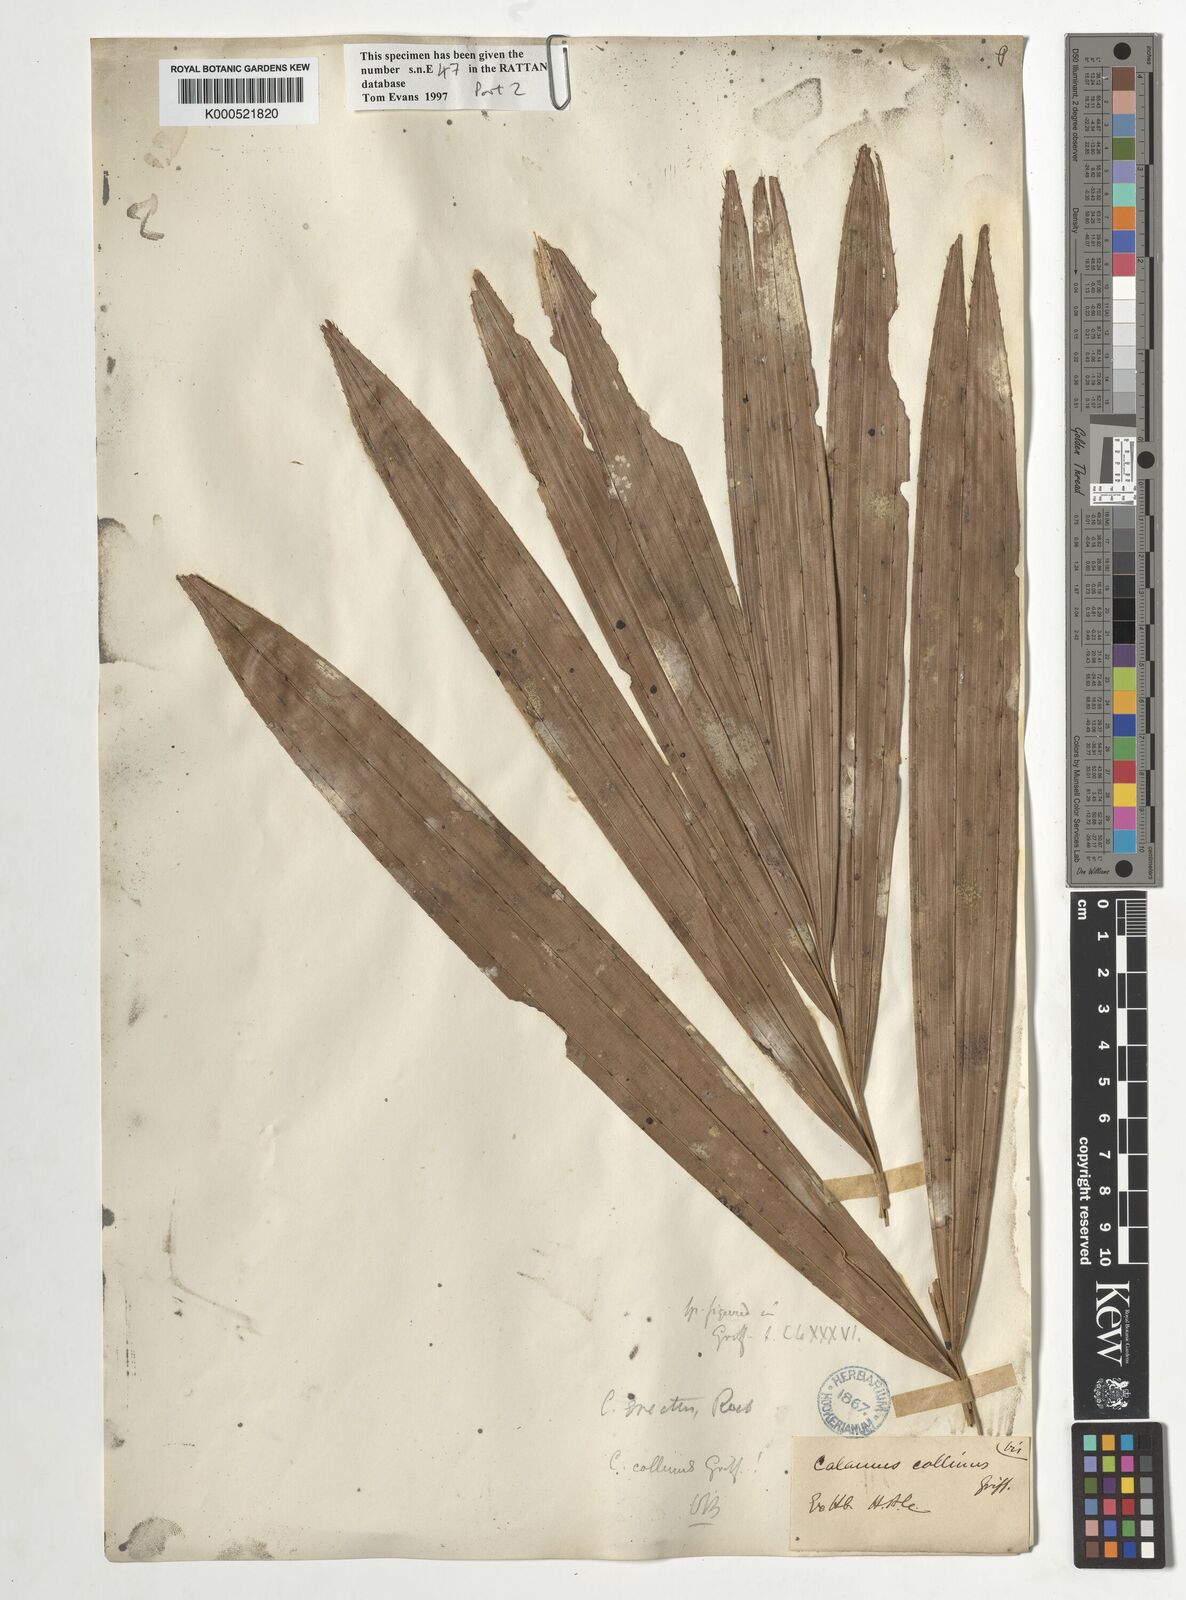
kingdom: Plantae
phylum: Tracheophyta
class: Liliopsida
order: Arecales
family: Arecaceae
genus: Calamus
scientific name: Calamus erectus
